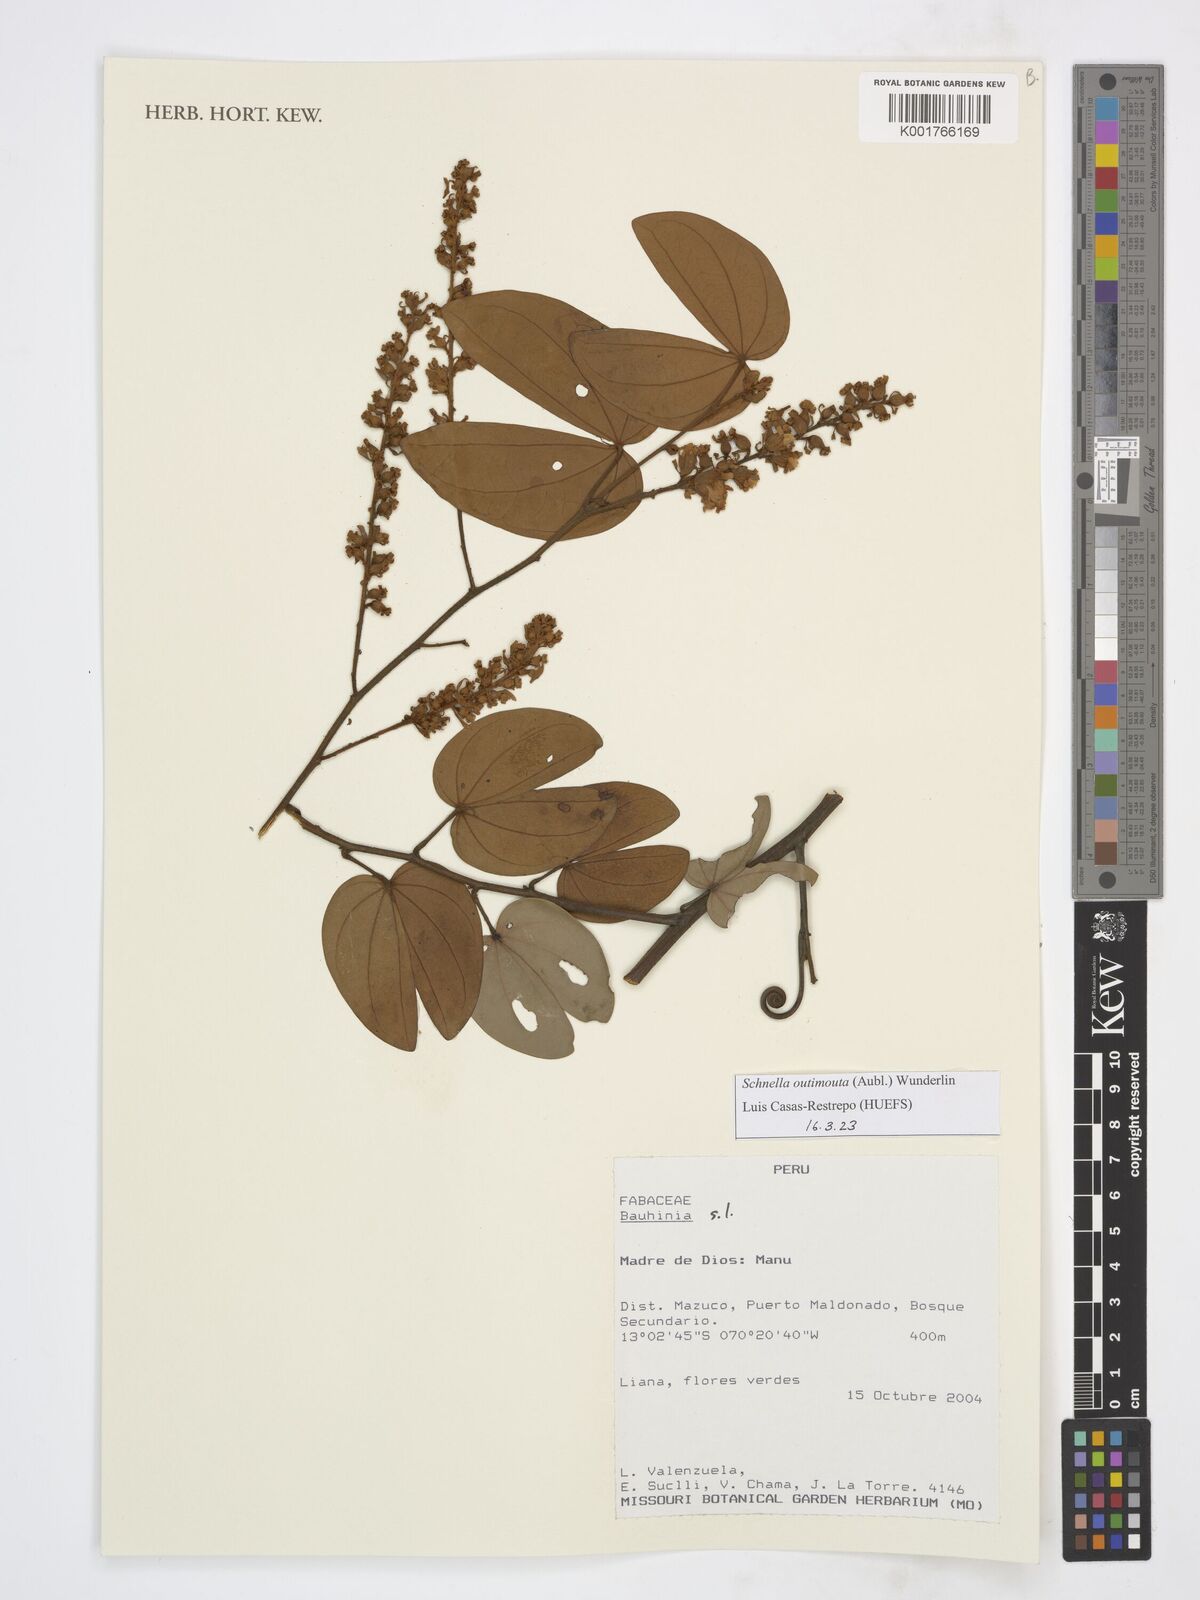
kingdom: Plantae
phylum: Tracheophyta
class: Magnoliopsida
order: Fabales
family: Fabaceae
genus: Schnella
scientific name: Schnella outimouta
